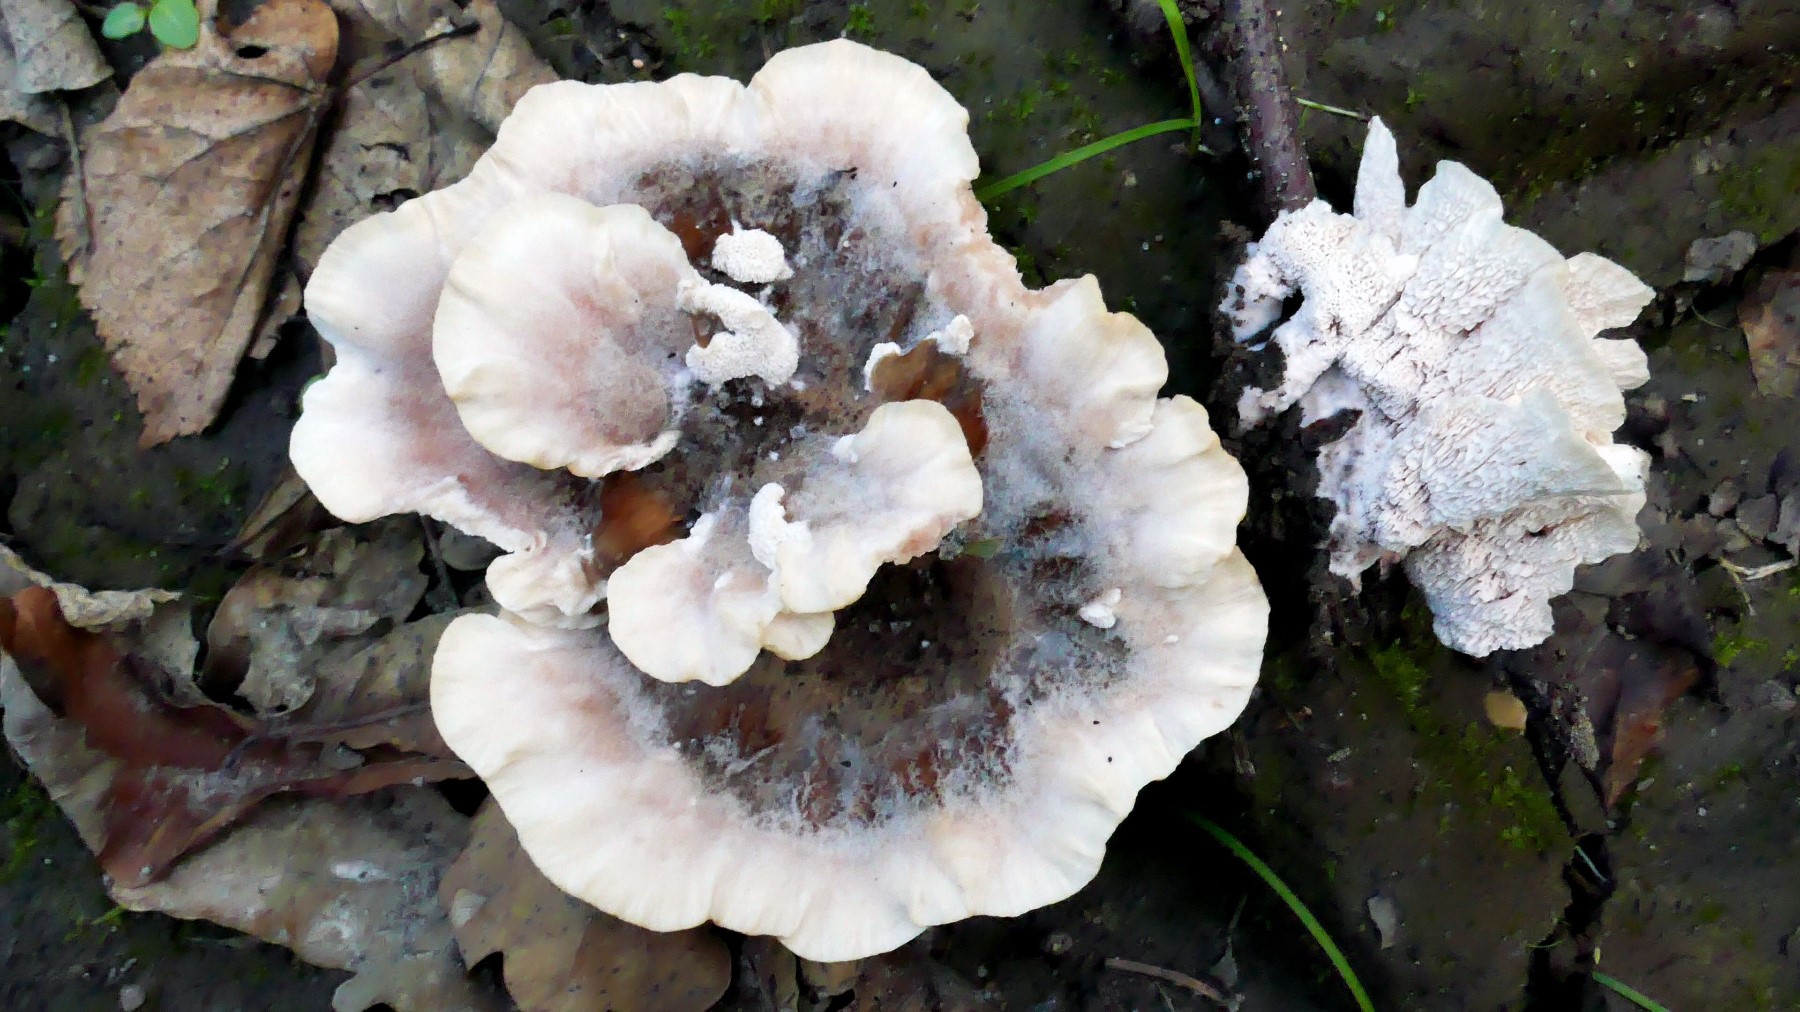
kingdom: Fungi
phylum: Basidiomycota
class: Agaricomycetes
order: Polyporales
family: Podoscyphaceae
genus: Abortiporus
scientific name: Abortiporus biennis
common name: rødmende pjalteporesvamp
